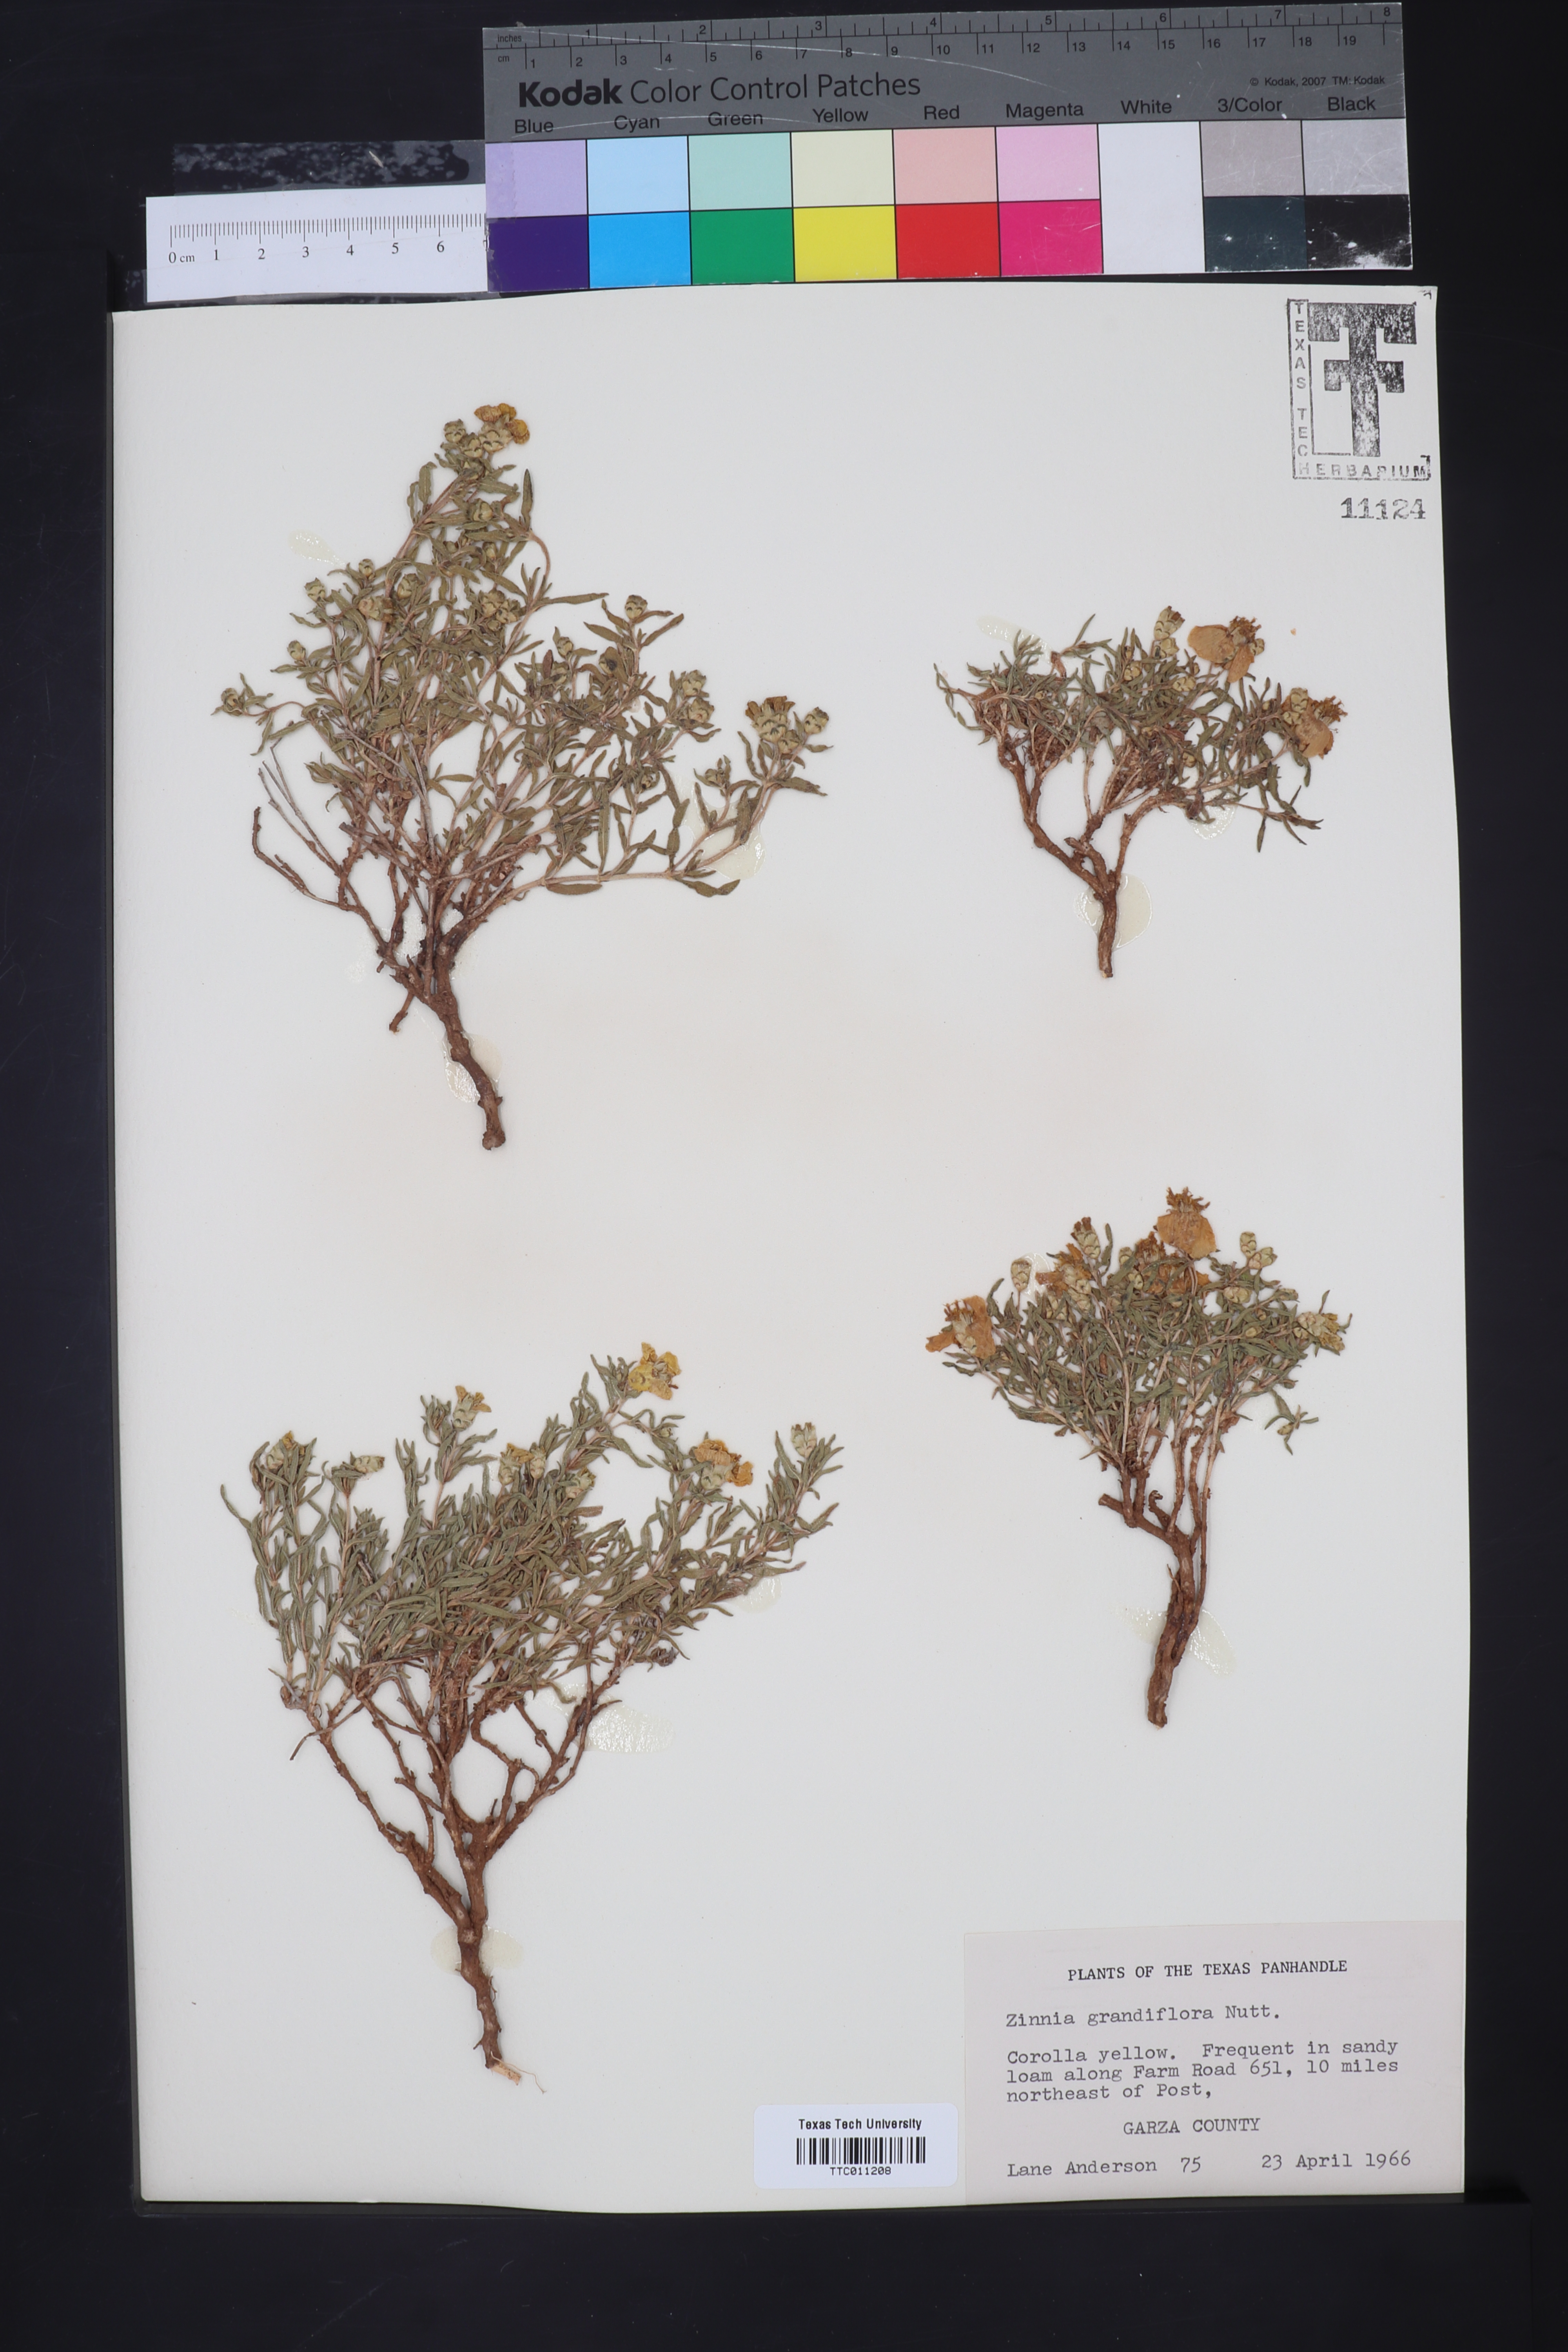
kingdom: Plantae
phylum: Tracheophyta
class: Magnoliopsida
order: Asterales
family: Asteraceae
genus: Zinnia
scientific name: Zinnia grandiflora
